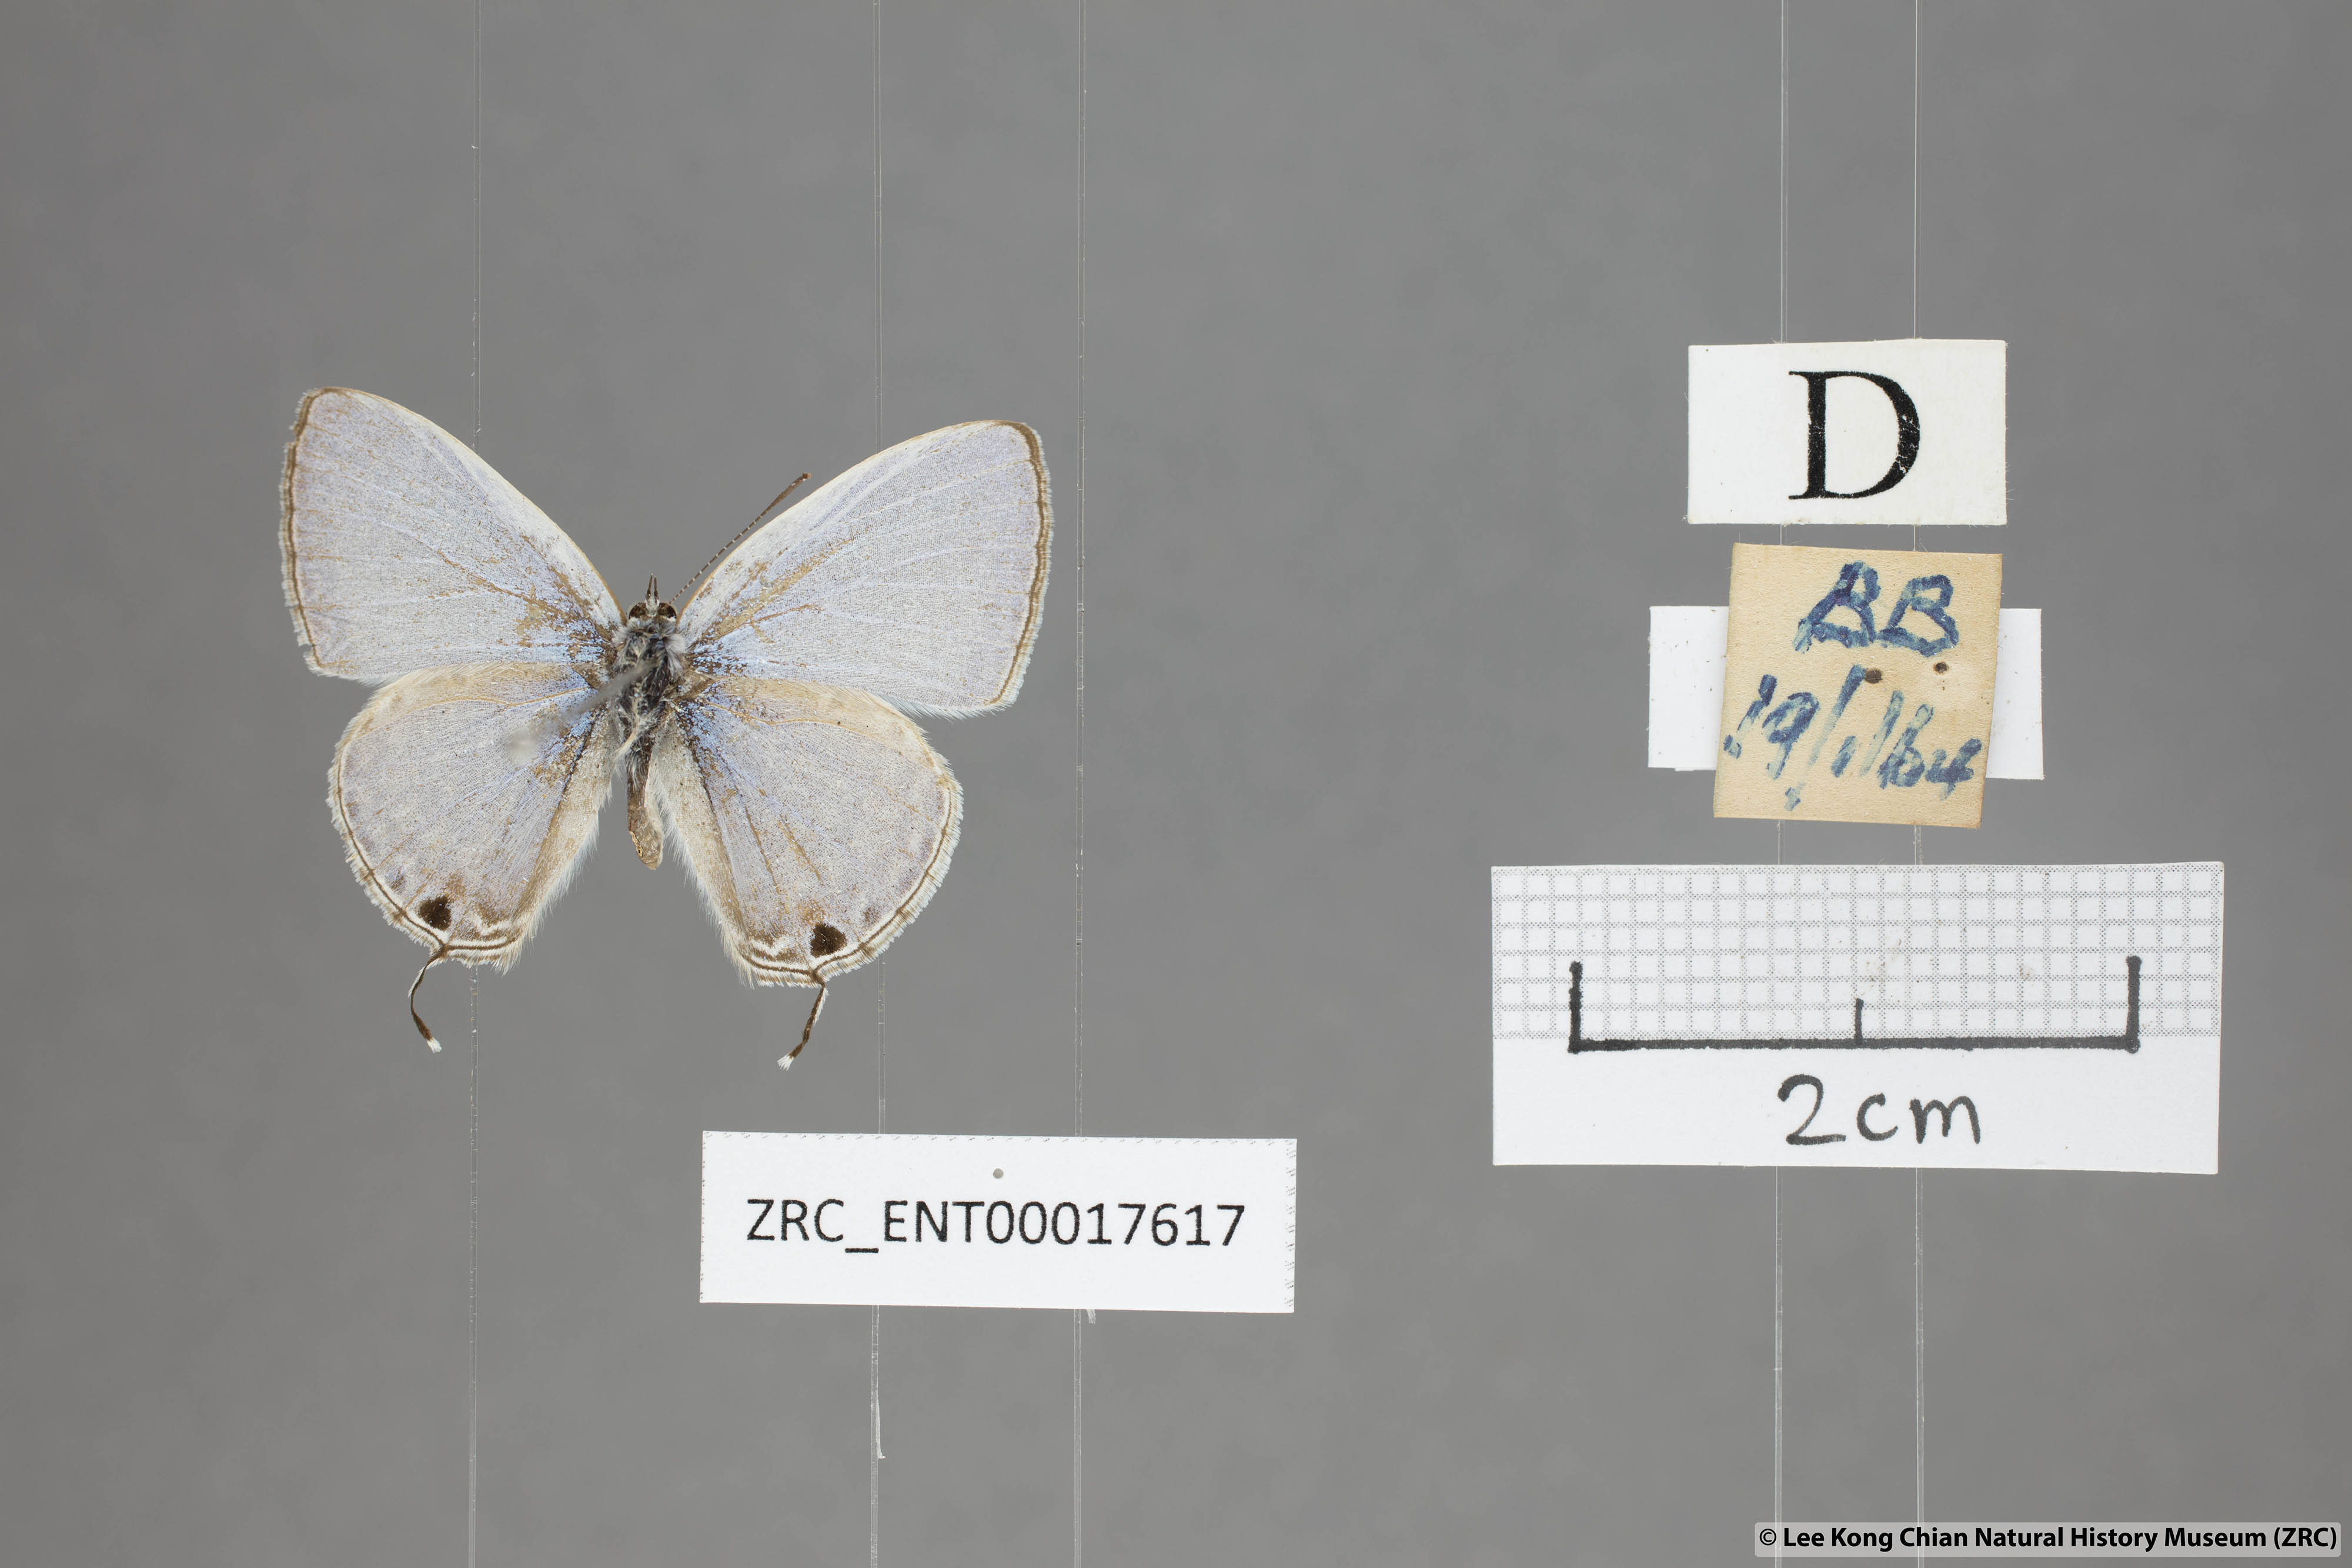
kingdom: Animalia
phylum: Arthropoda
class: Insecta
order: Lepidoptera
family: Lycaenidae
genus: Catochrysops
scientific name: Catochrysops panormus
